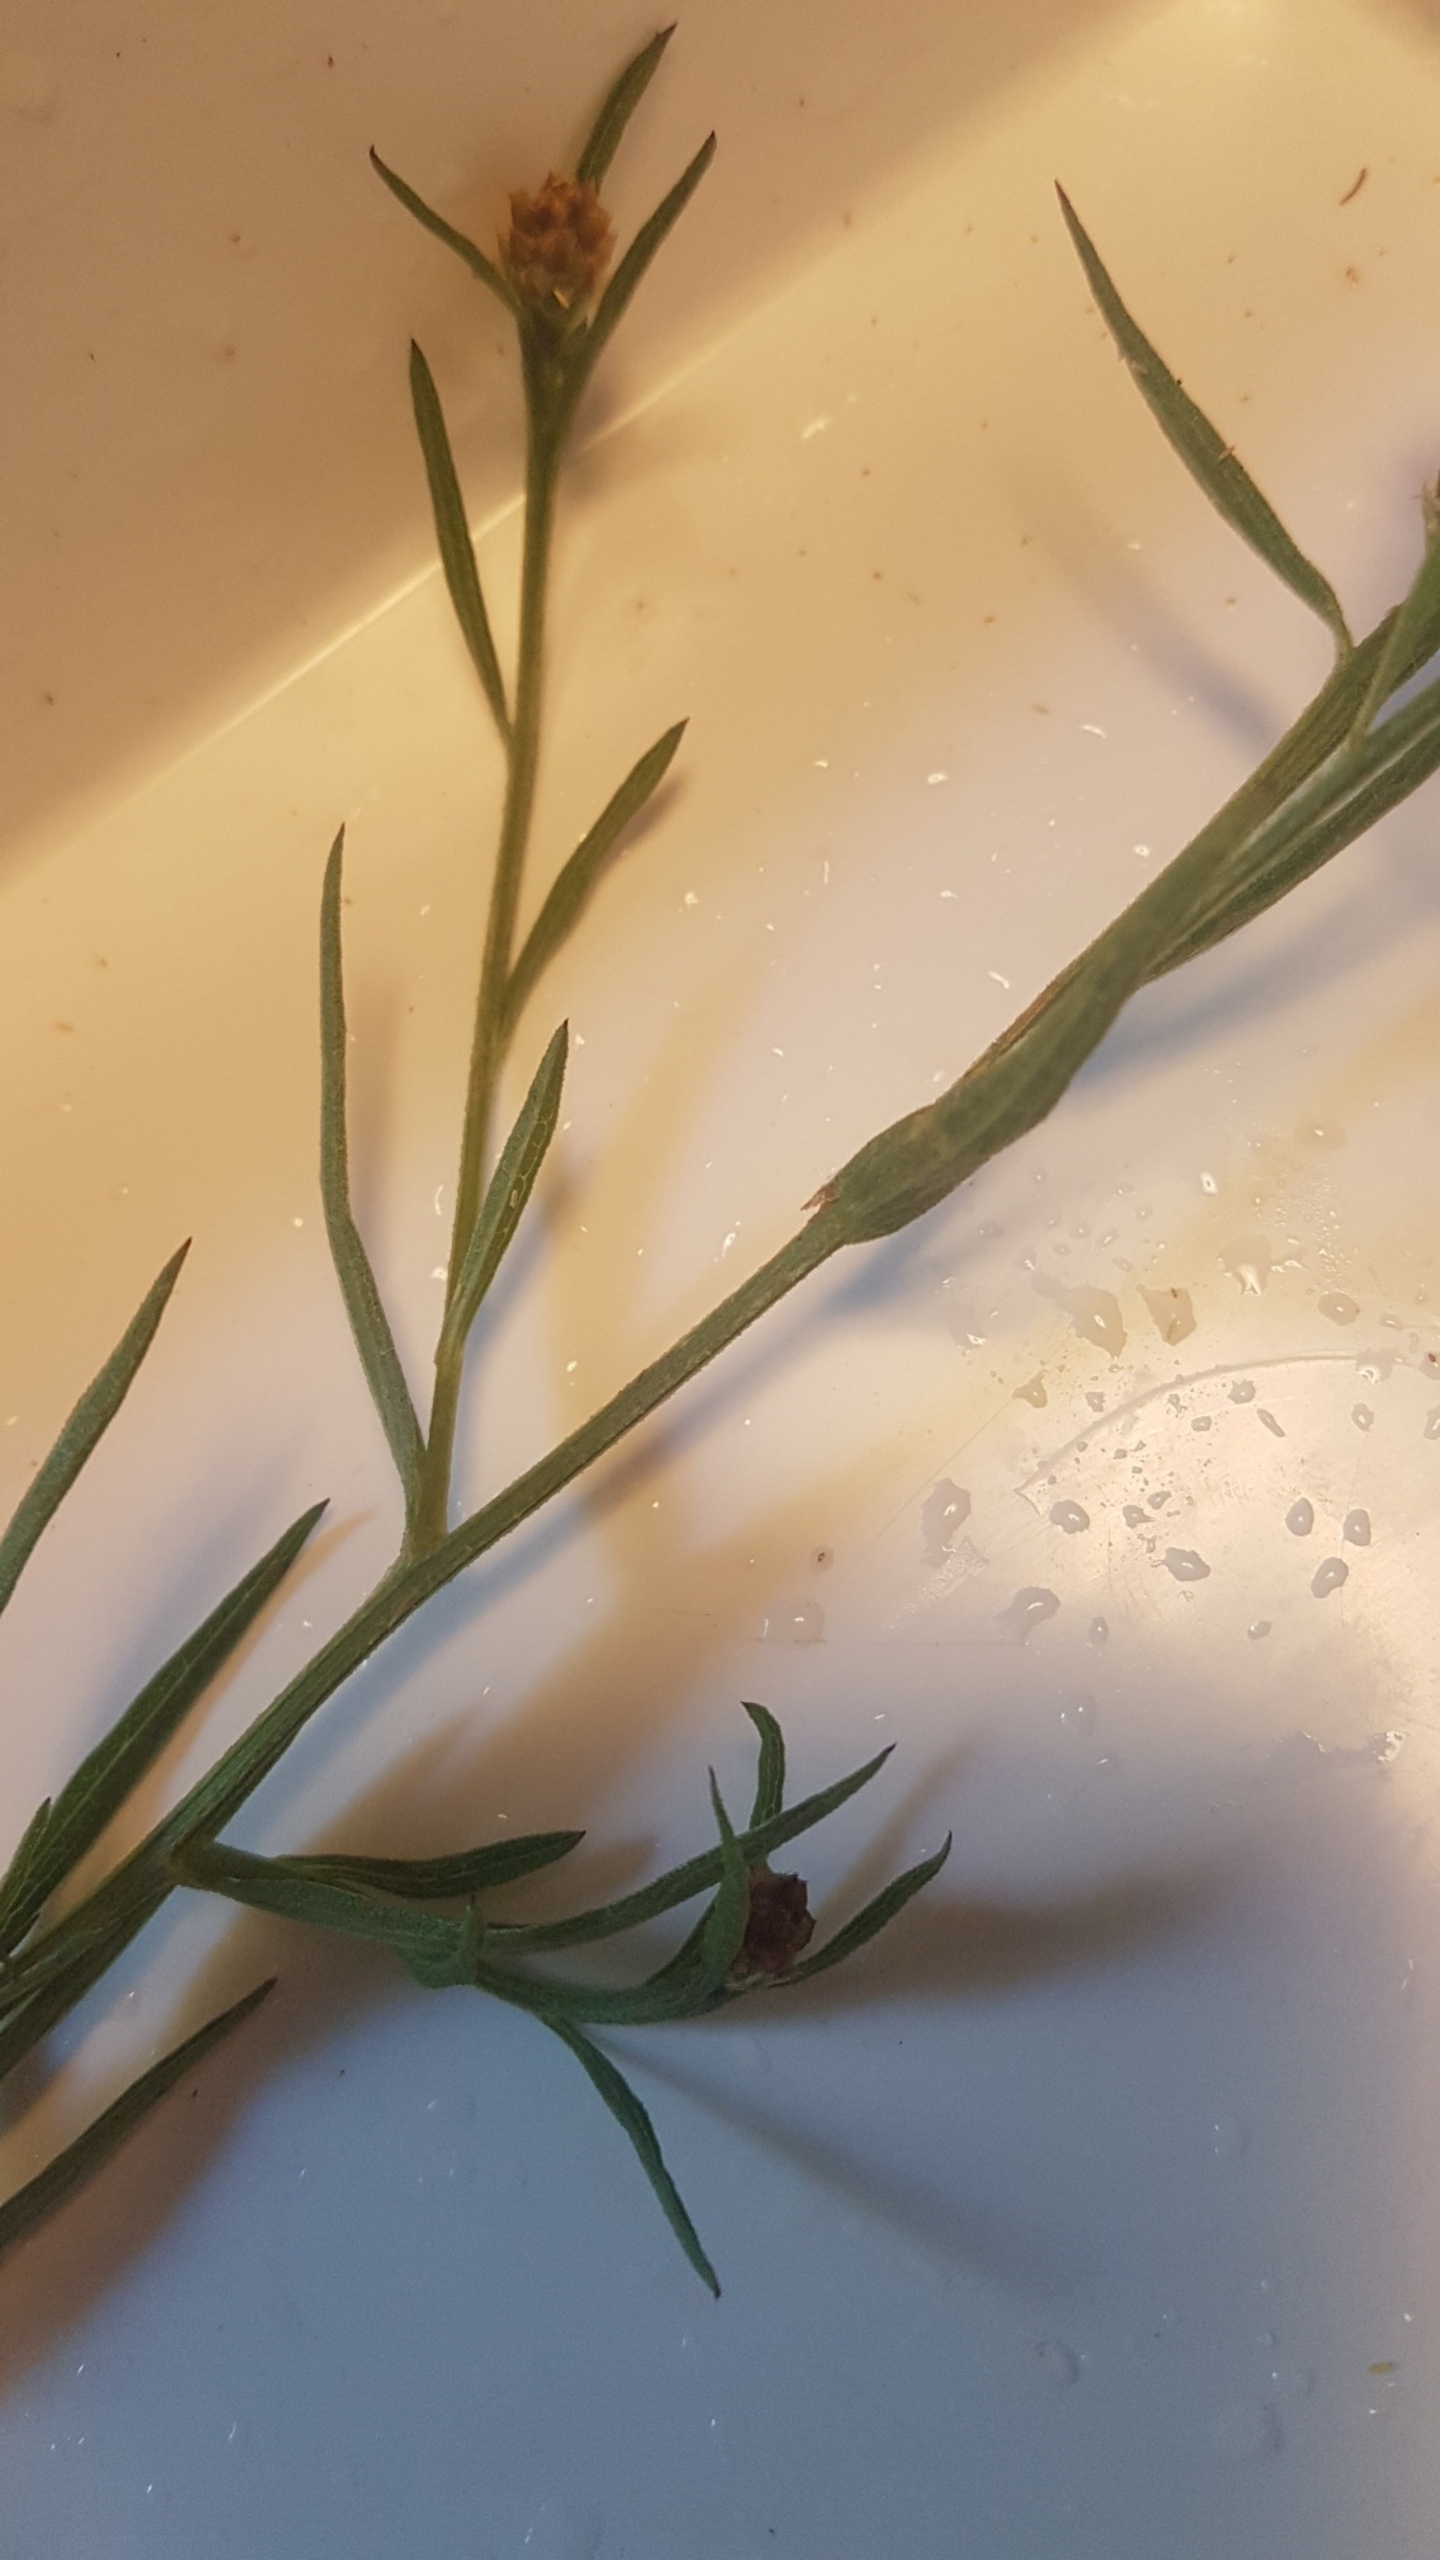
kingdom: Plantae
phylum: Tracheophyta
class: Magnoliopsida
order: Asterales
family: Asteraceae
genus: Centaurea
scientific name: Centaurea jacea
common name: Almindelig knopurt
